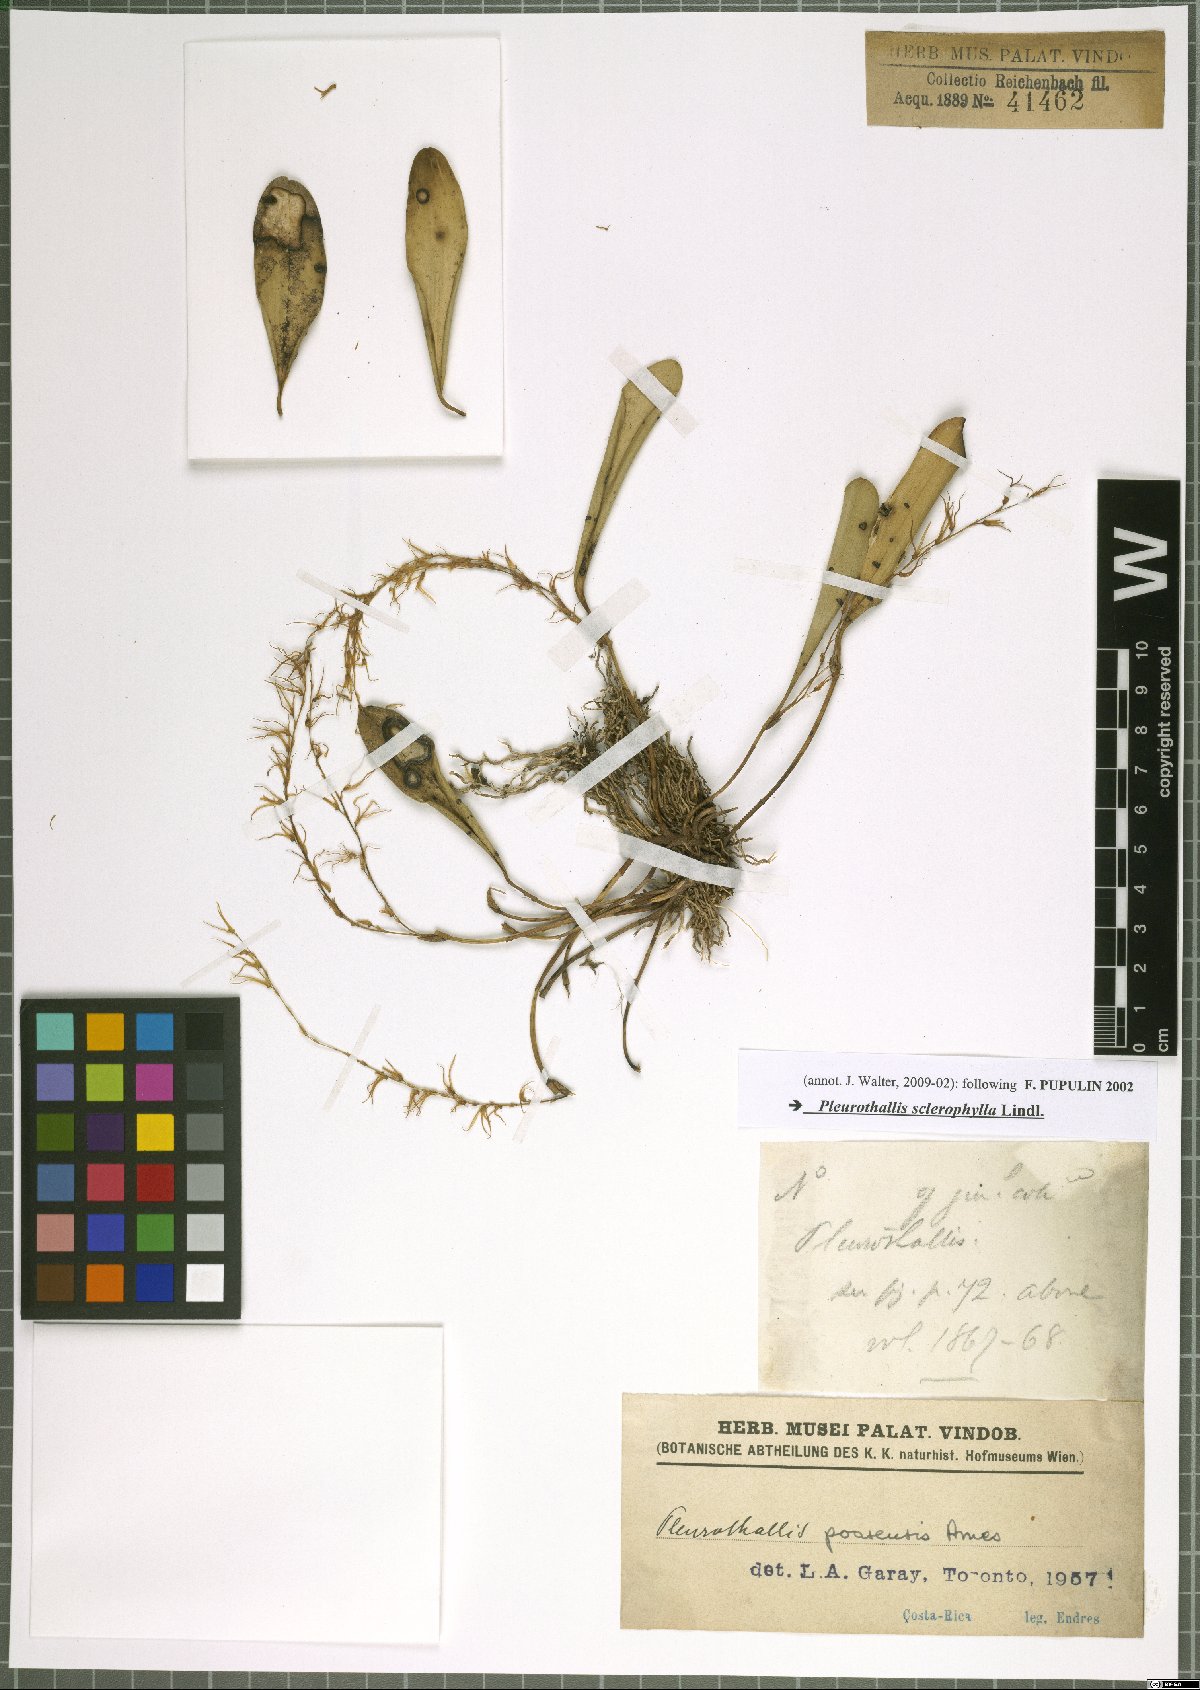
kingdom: Plantae
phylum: Tracheophyta
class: Liliopsida
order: Asparagales
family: Orchidaceae
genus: Stelis
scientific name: Stelis sclerophylla
